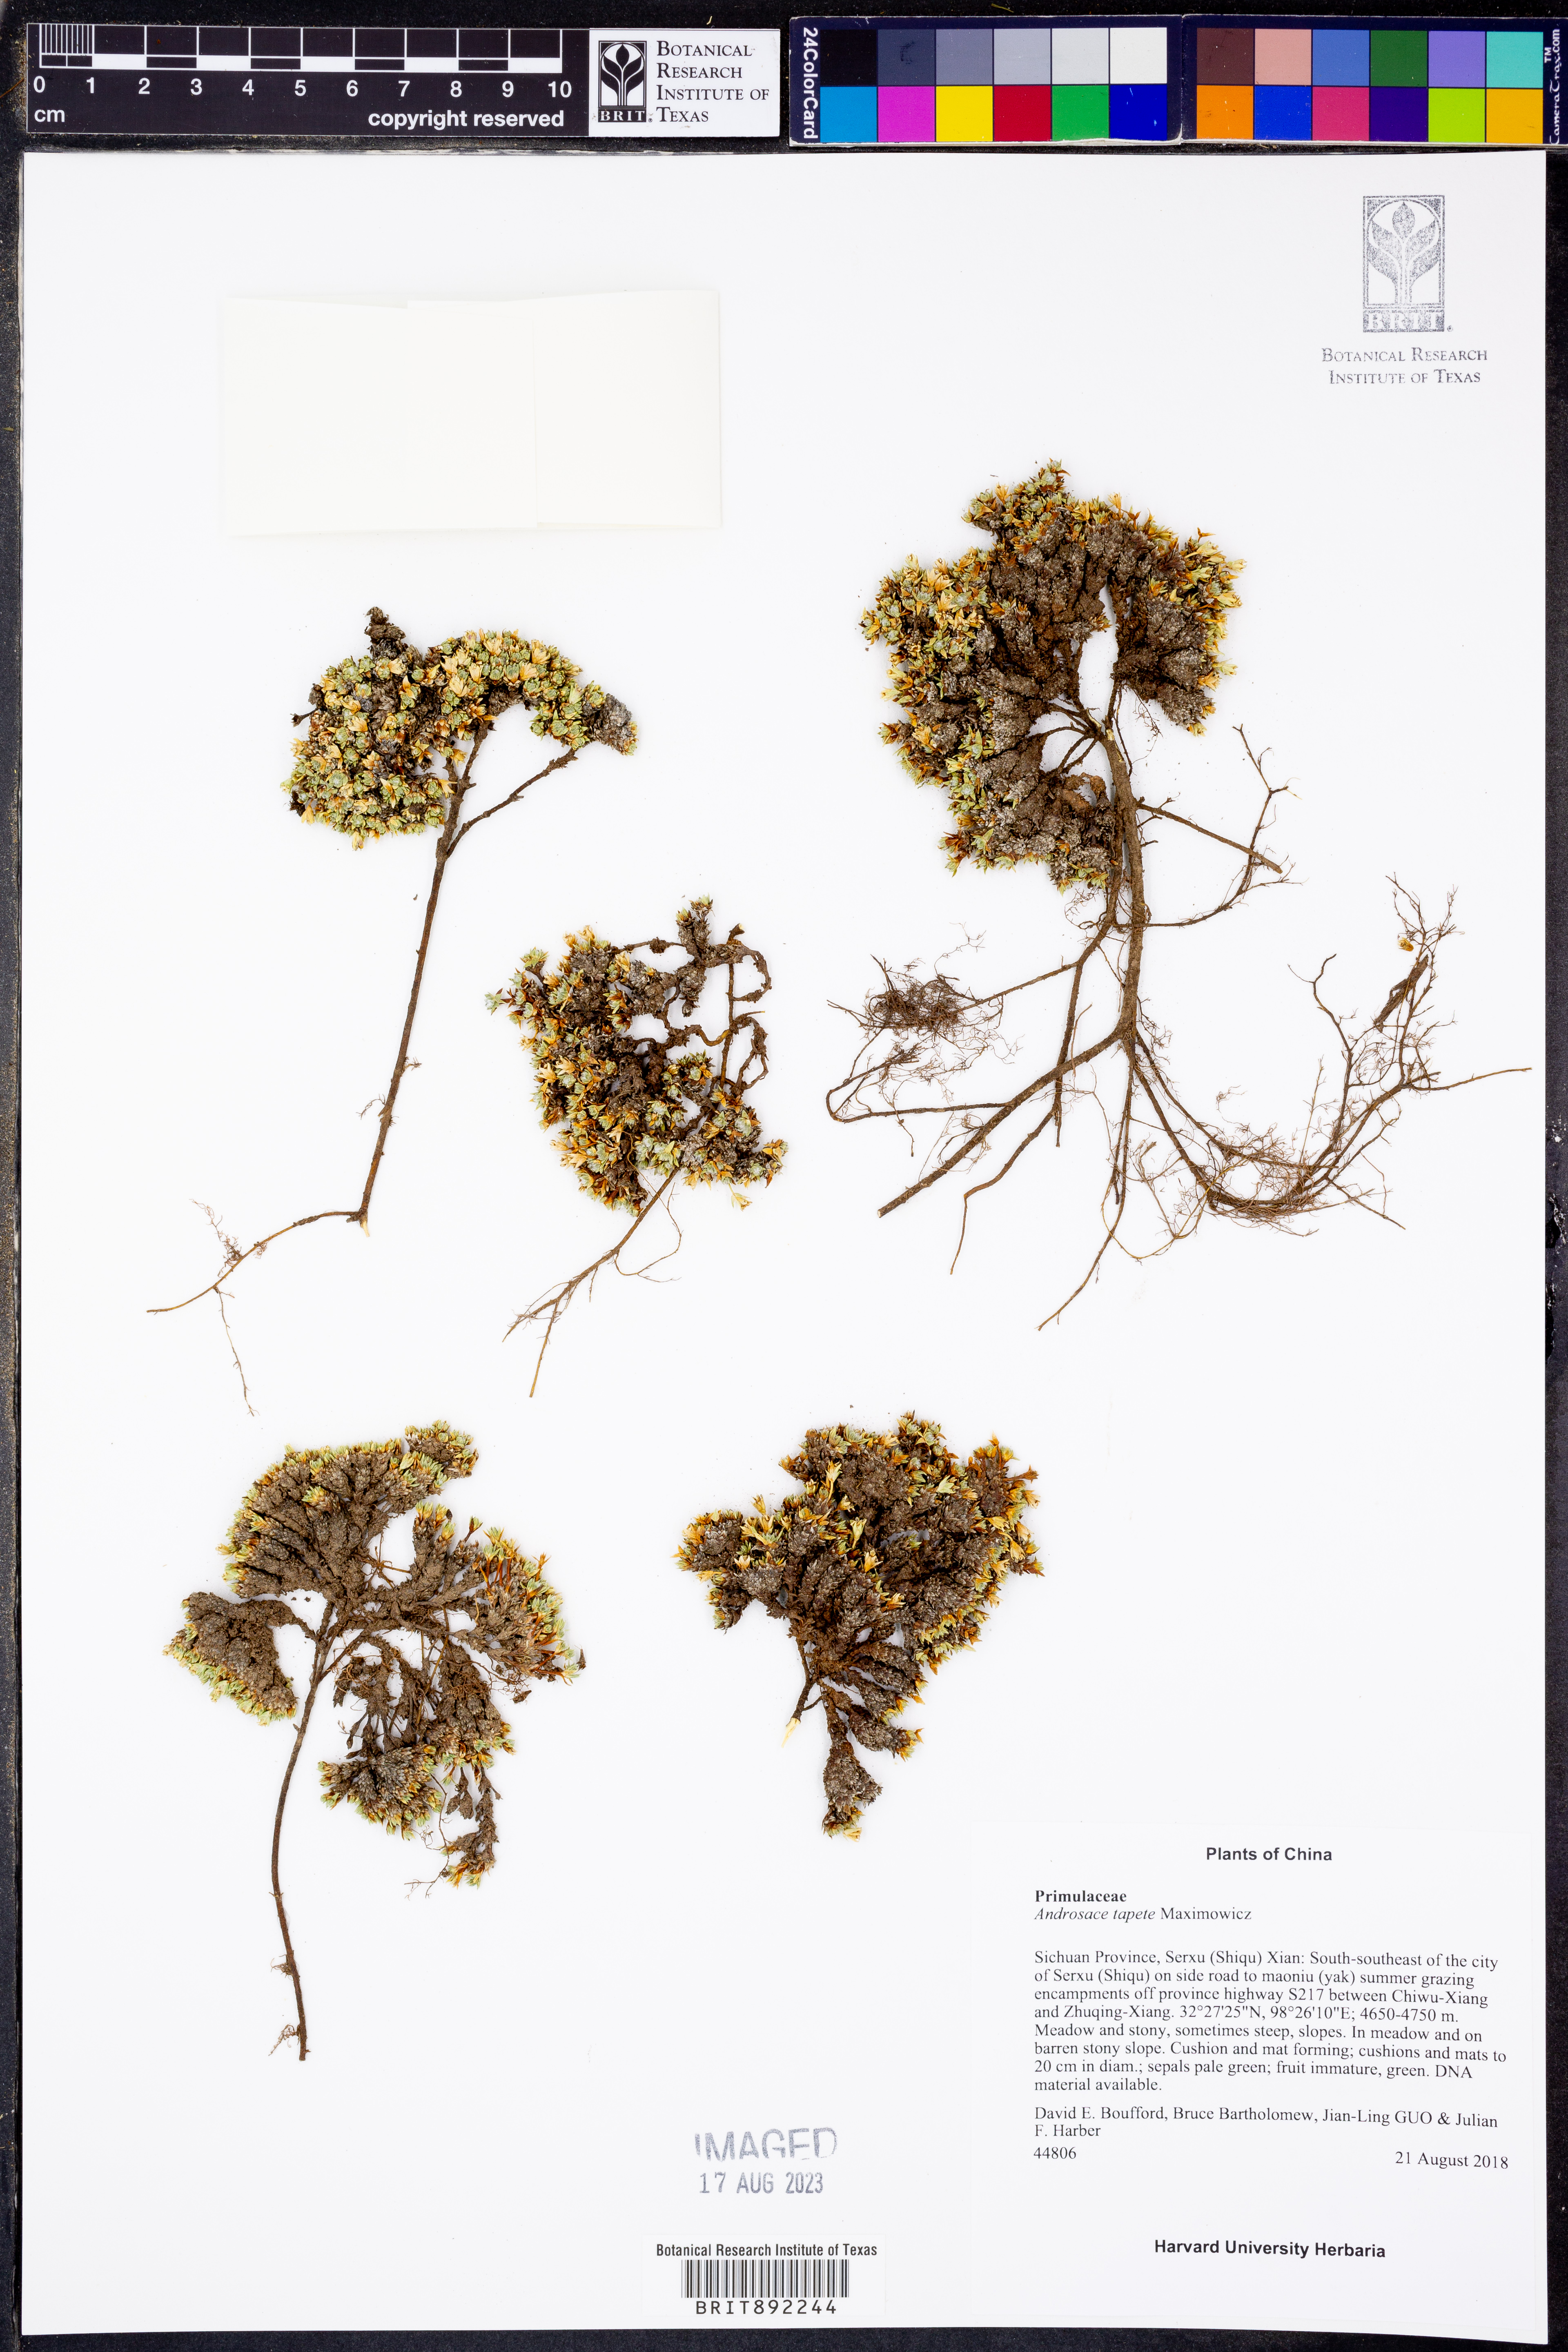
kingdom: Plantae
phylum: Tracheophyta
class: Magnoliopsida
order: Ericales
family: Primulaceae
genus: Androsace
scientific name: Androsace tapete
